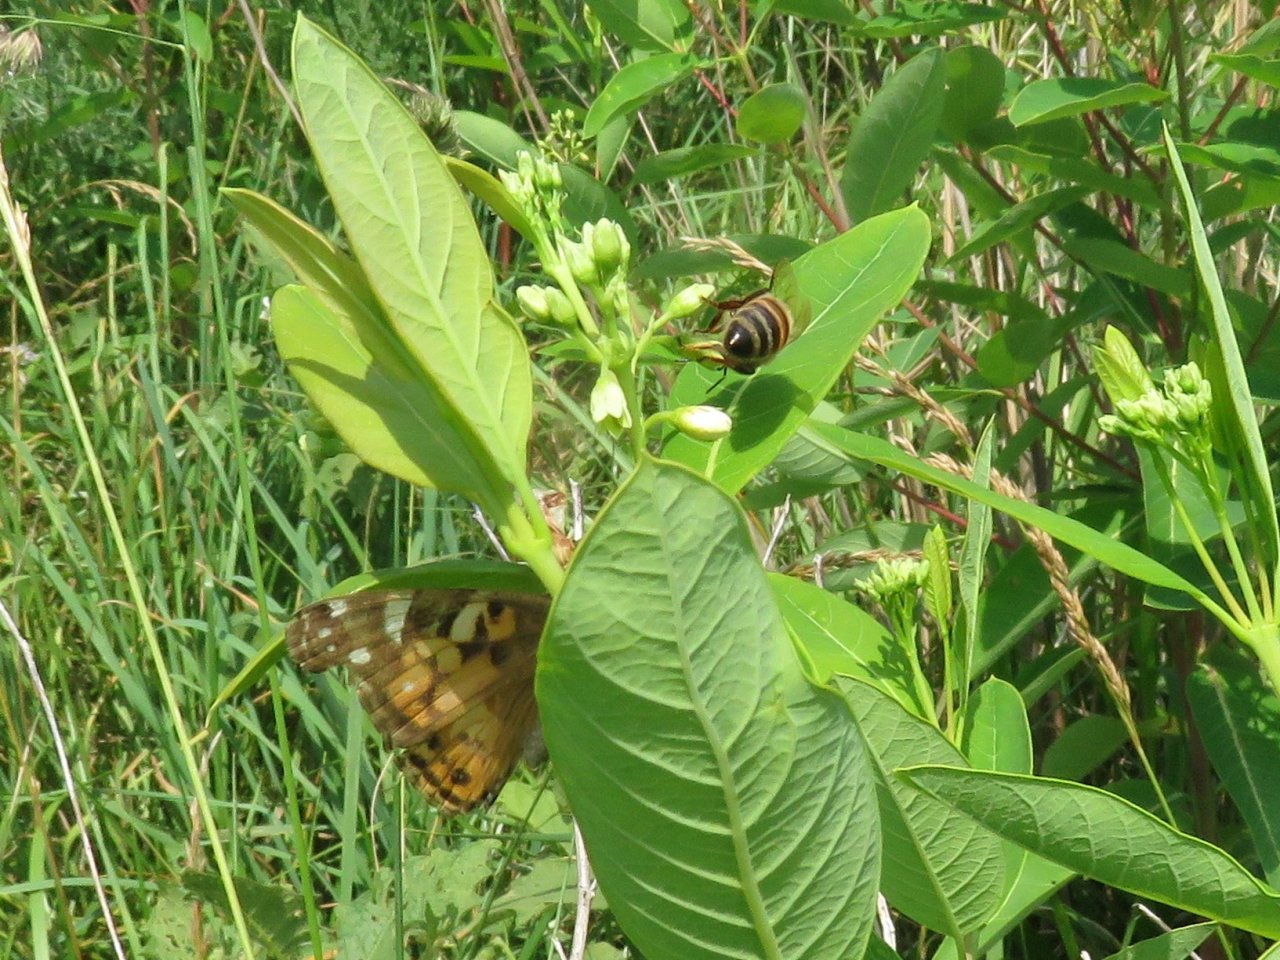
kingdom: Animalia
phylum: Arthropoda
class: Insecta
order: Lepidoptera
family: Nymphalidae
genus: Vanessa
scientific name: Vanessa virginiensis
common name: American Lady
